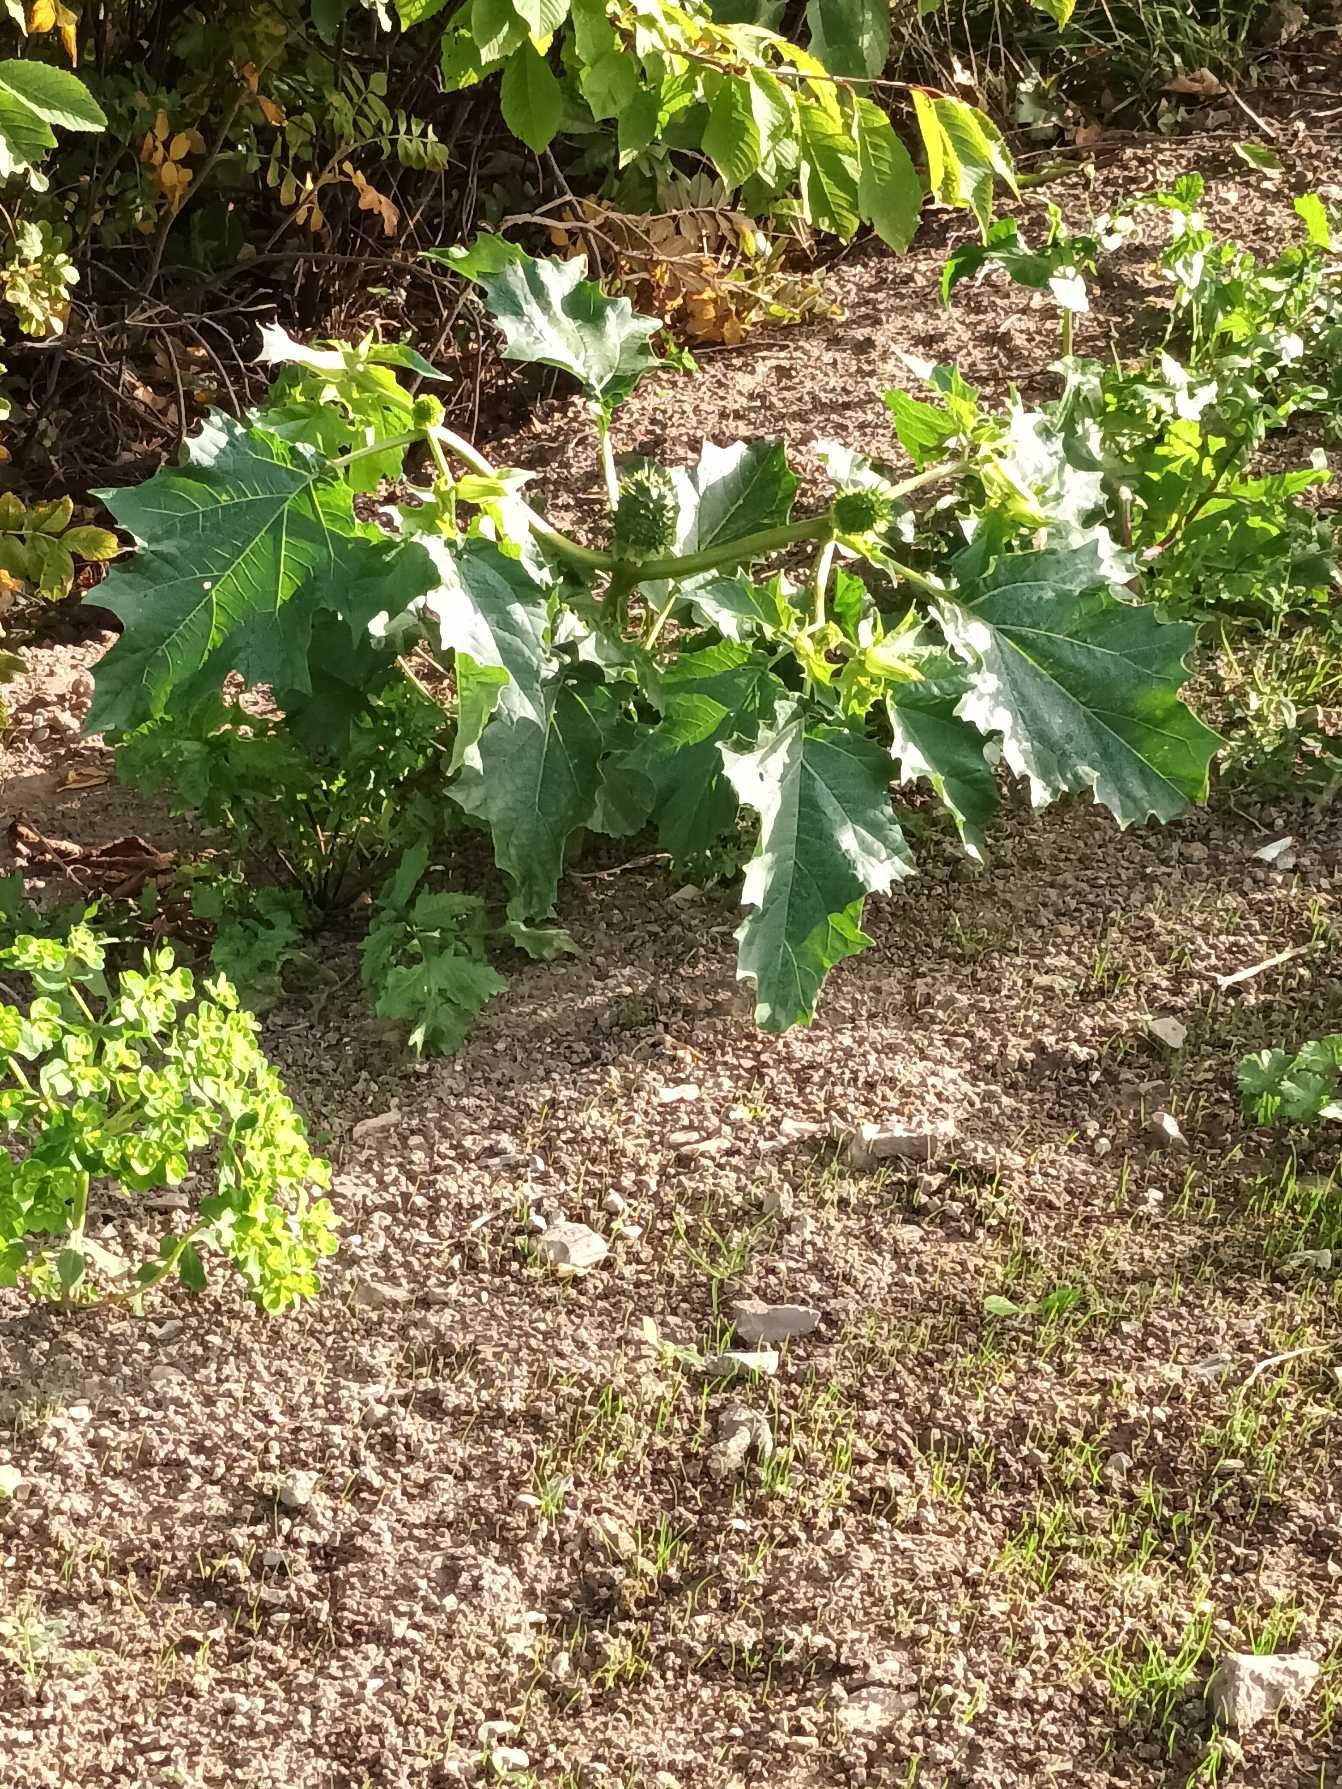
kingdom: Plantae
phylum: Tracheophyta
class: Magnoliopsida
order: Solanales
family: Solanaceae
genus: Datura
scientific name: Datura stramonium
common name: Pigæble
